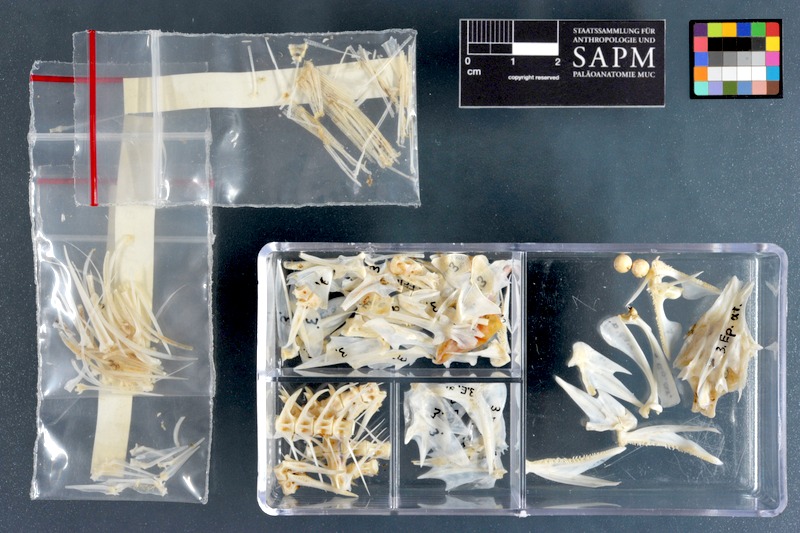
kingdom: Animalia
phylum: Chordata
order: Perciformes
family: Serranidae
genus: Epinephelus
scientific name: Epinephelus areolatus
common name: Areolate grouper
